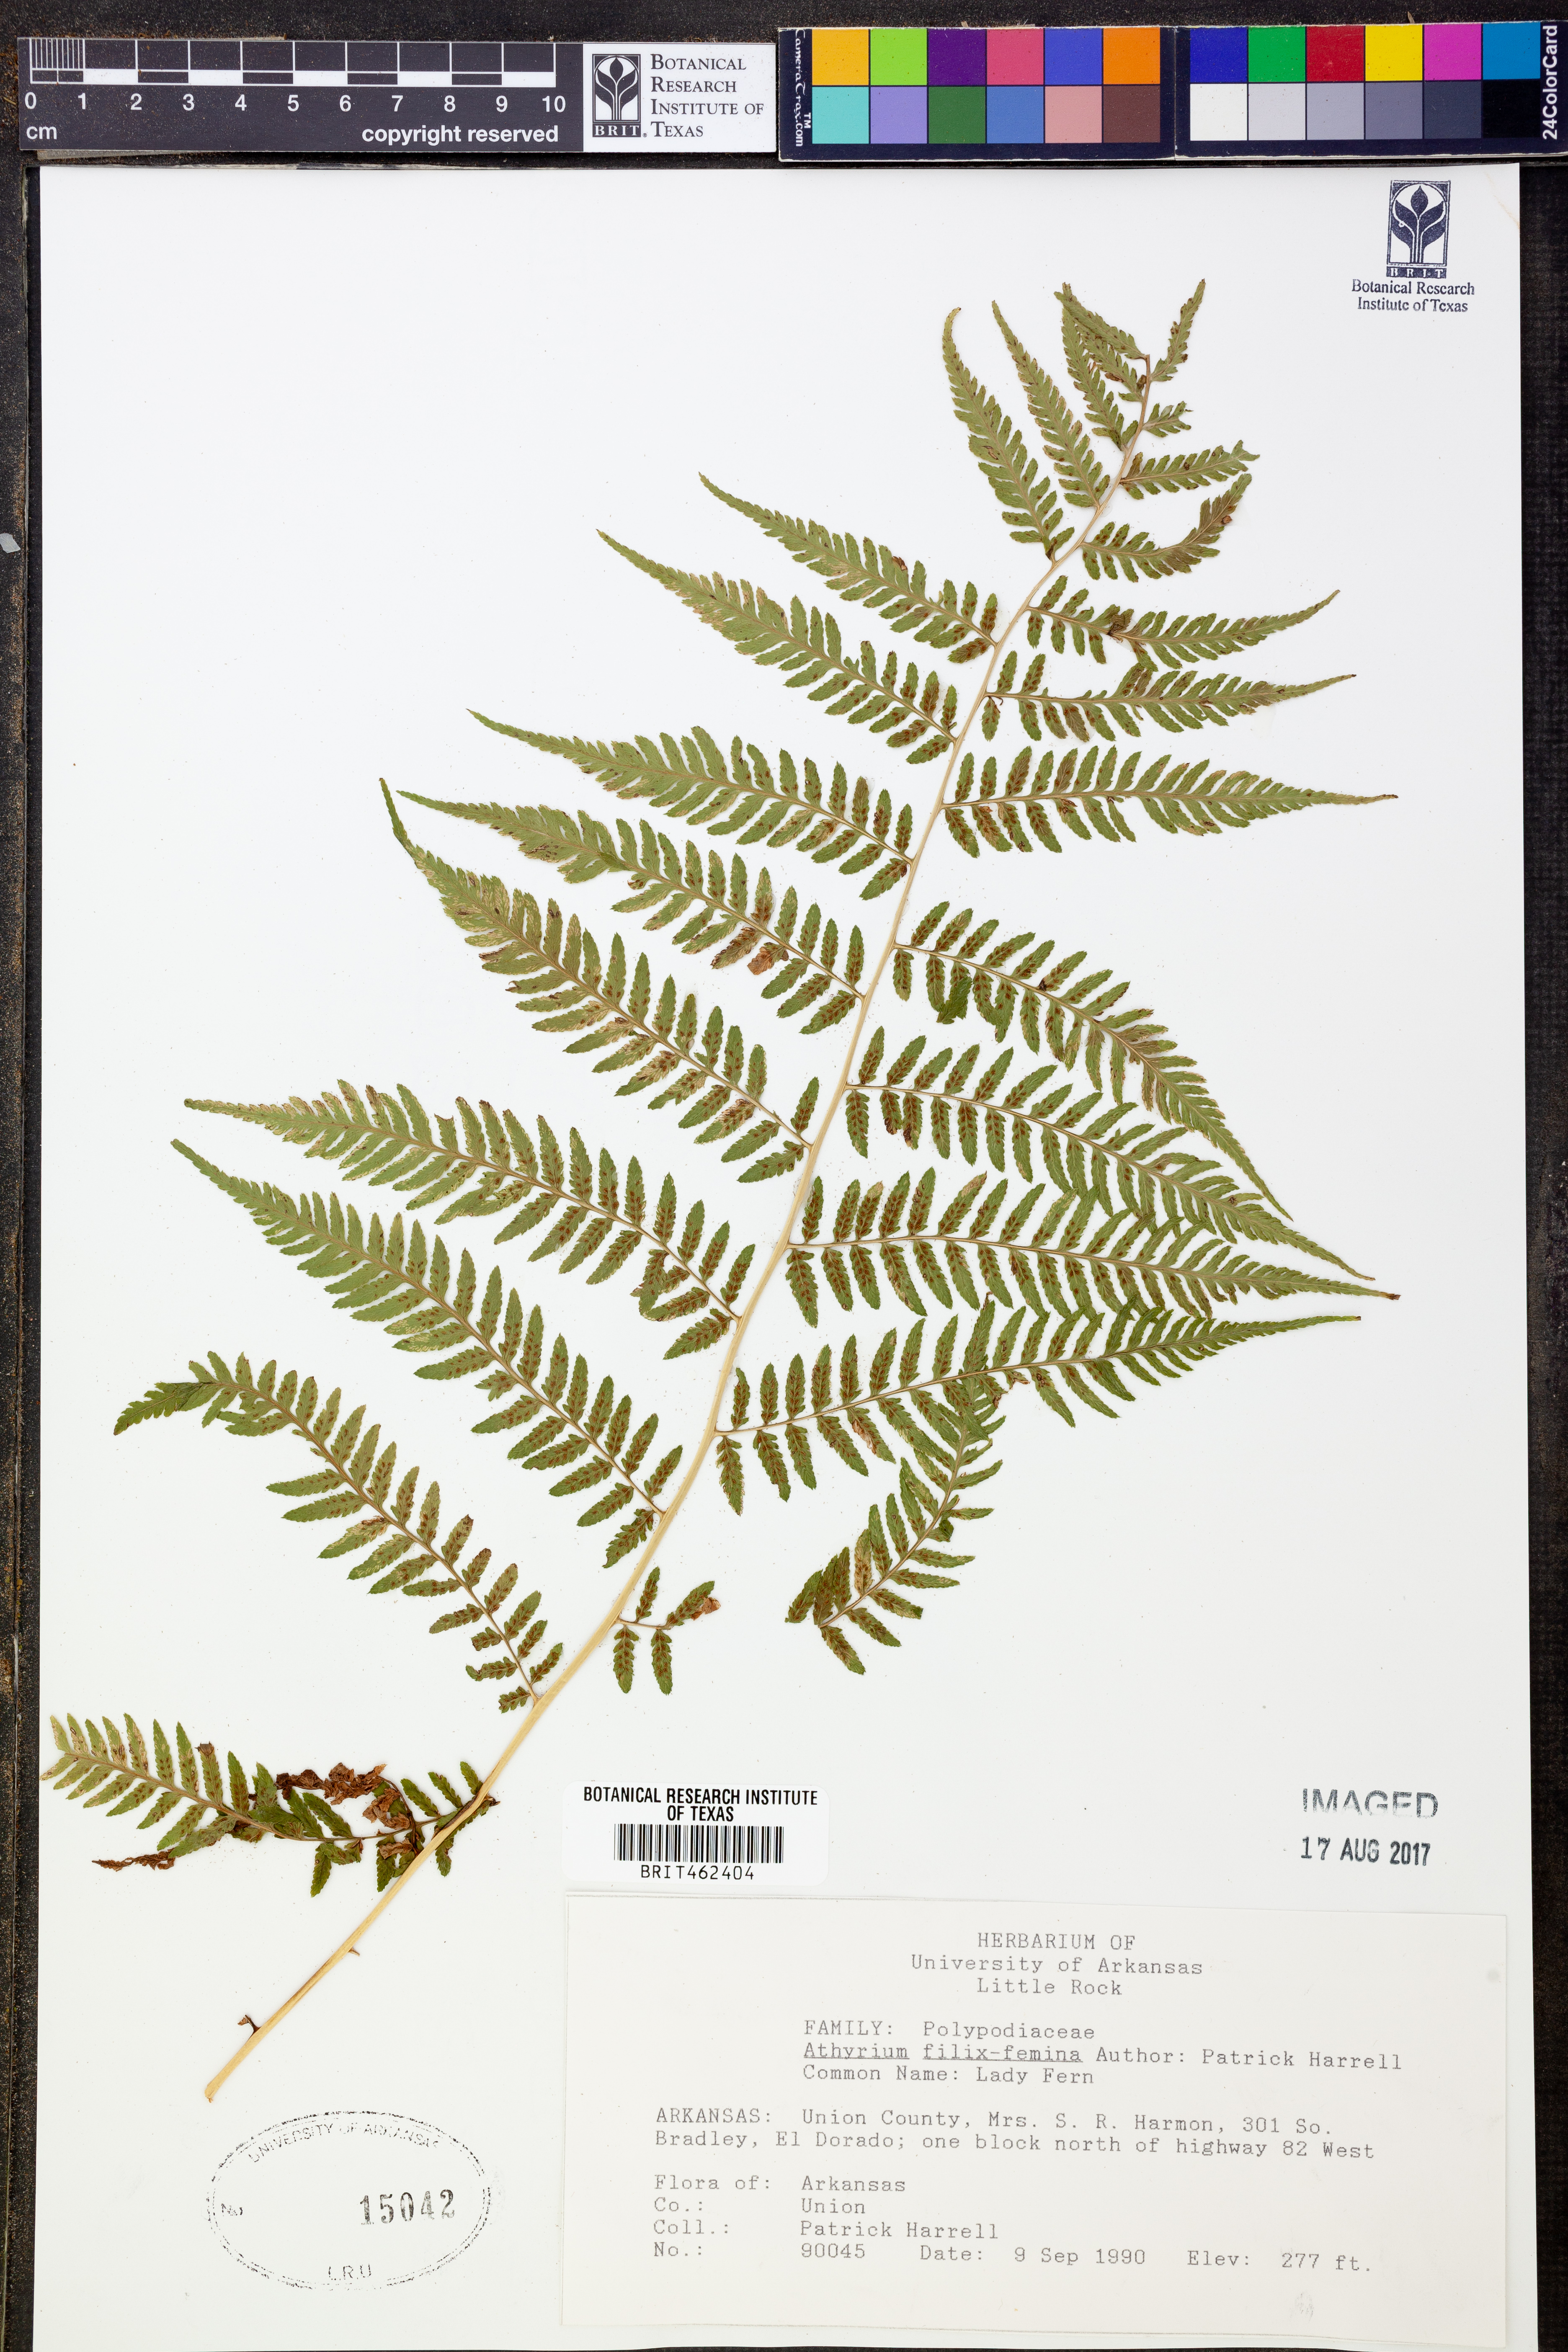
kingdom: Plantae
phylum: Tracheophyta
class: Polypodiopsida
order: Polypodiales
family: Athyriaceae
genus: Athyrium
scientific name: Athyrium filix-femina
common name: Lady fern
